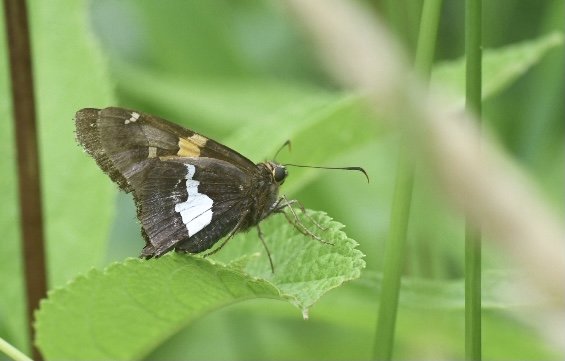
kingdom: Animalia
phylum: Arthropoda
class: Insecta
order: Lepidoptera
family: Hesperiidae
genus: Epargyreus
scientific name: Epargyreus clarus
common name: Silver-spotted Skipper
